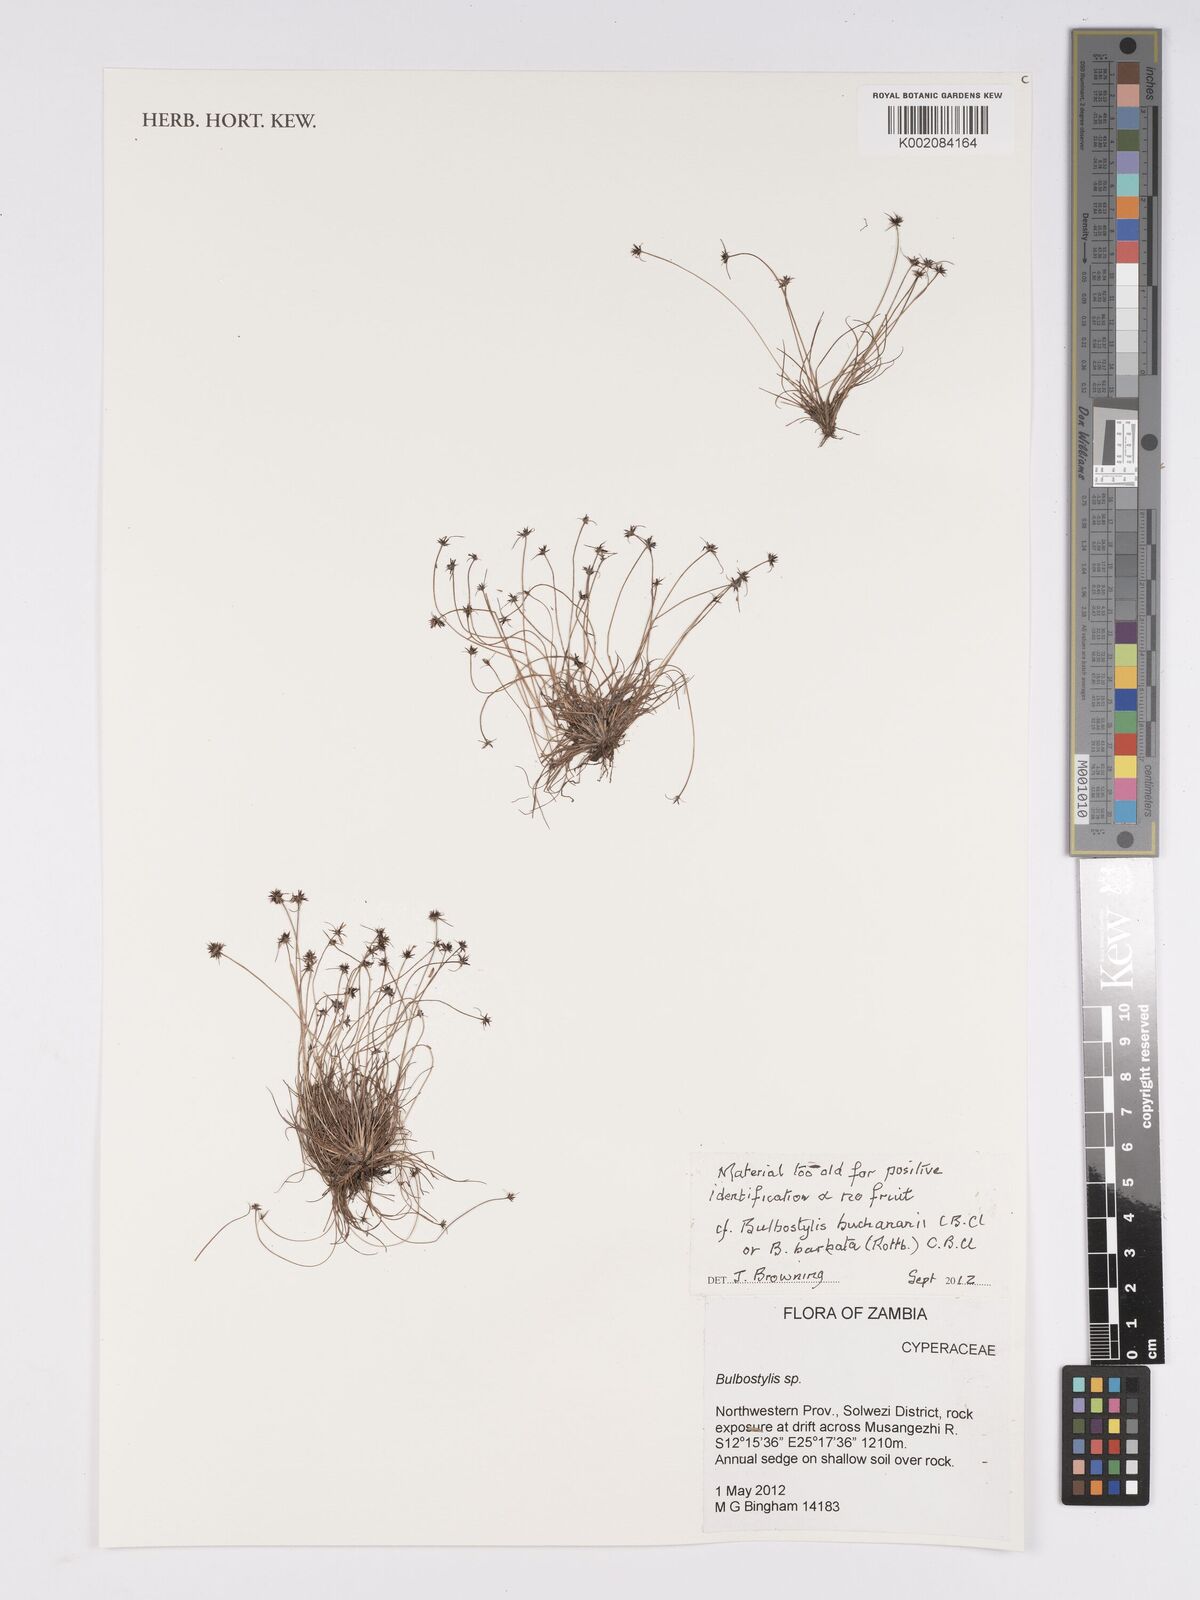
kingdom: Plantae
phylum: Tracheophyta
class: Liliopsida
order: Poales
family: Cyperaceae
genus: Bulbostylis
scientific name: Bulbostylis
